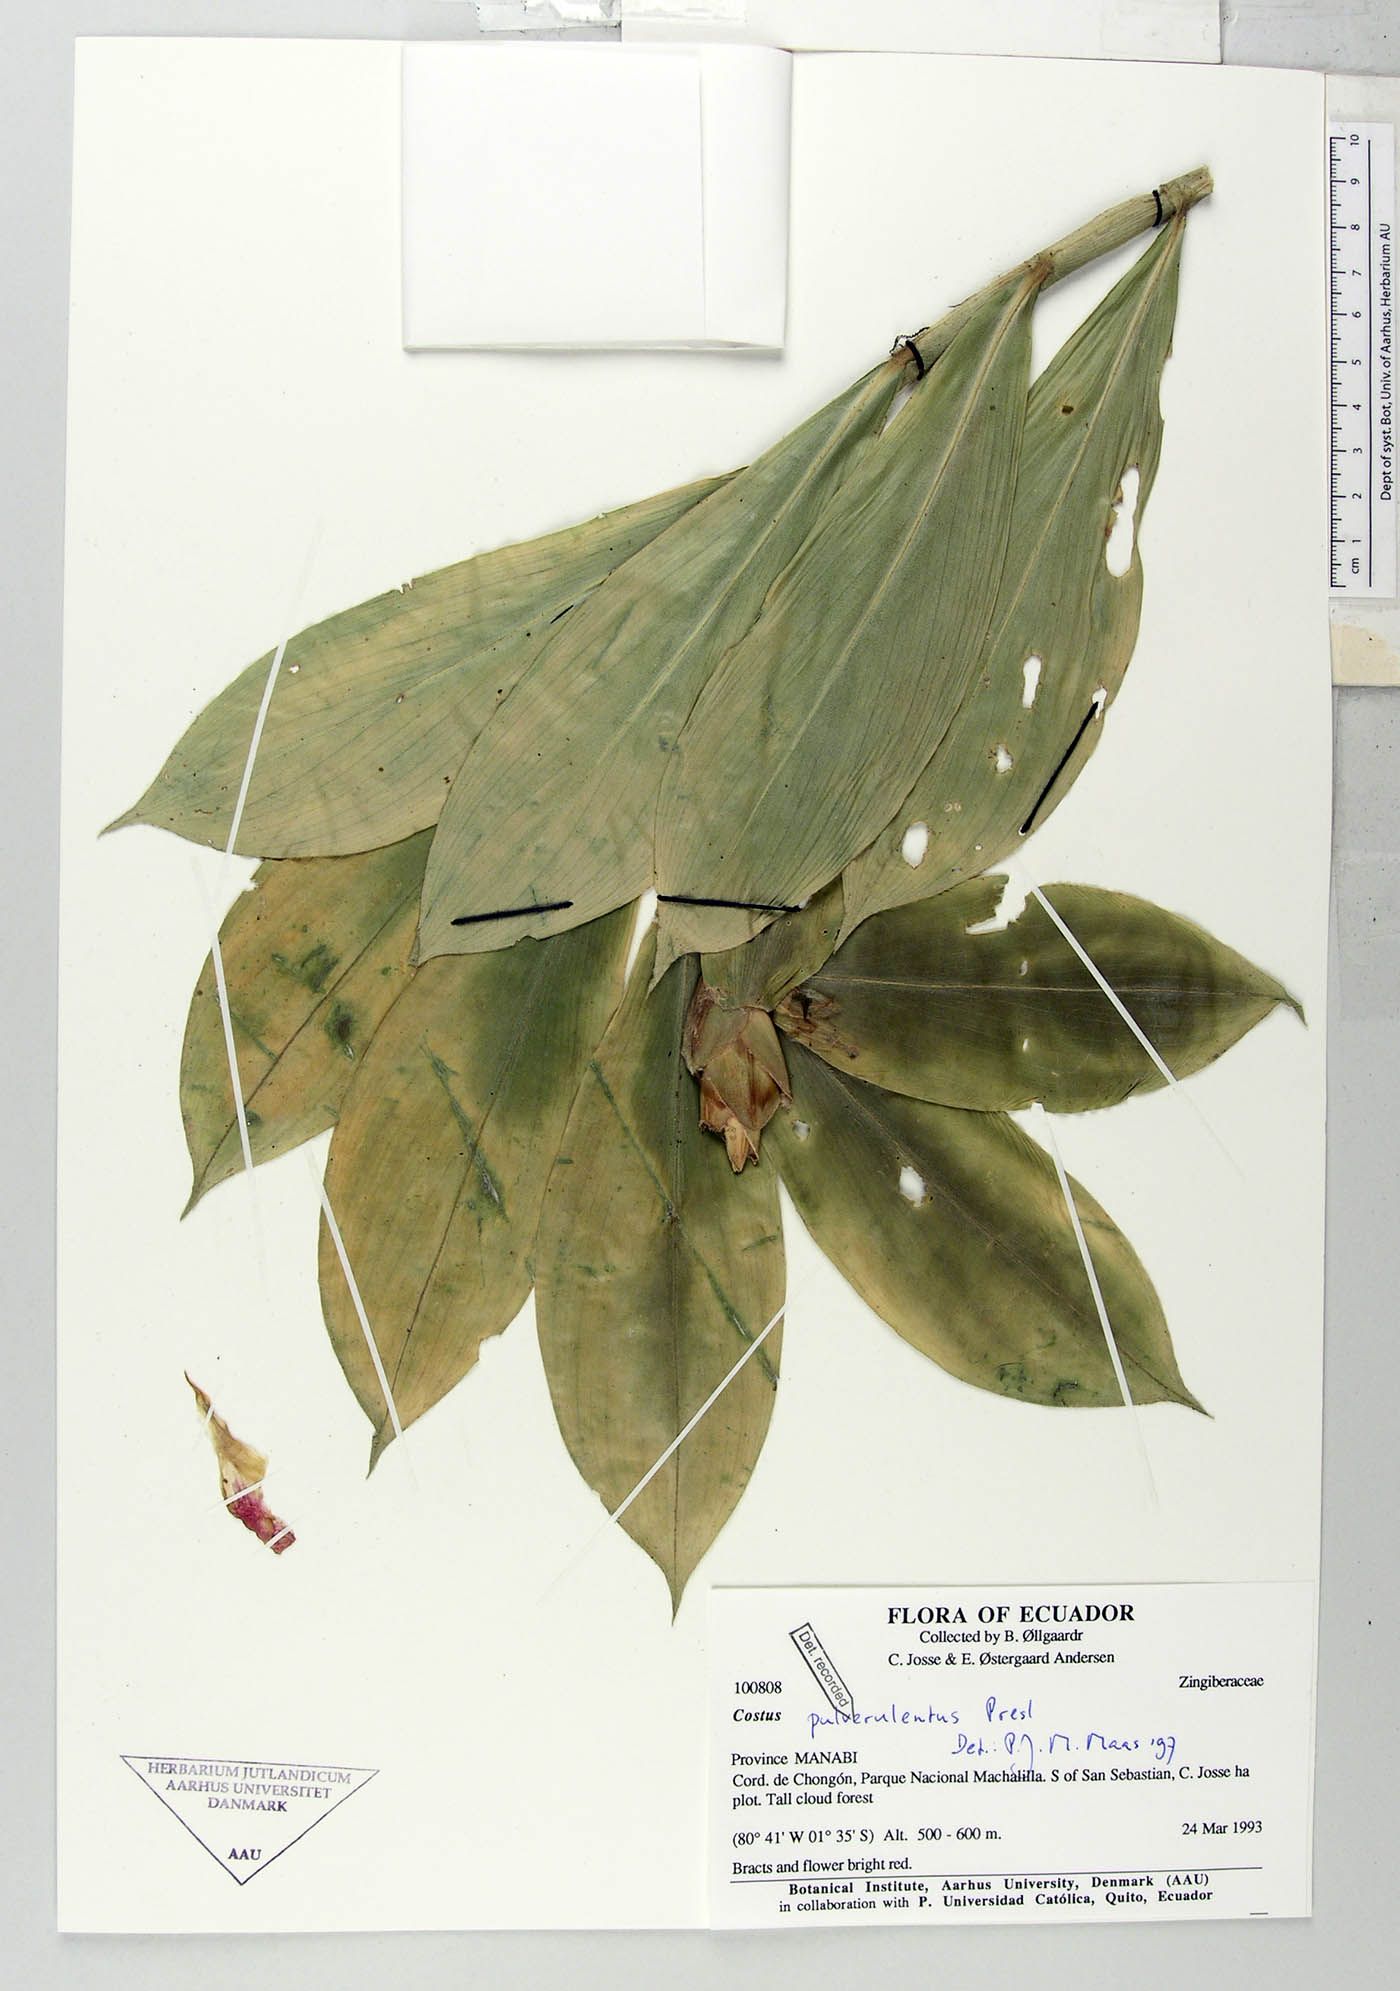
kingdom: Plantae
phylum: Tracheophyta
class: Liliopsida
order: Zingiberales
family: Costaceae
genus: Costus
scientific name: Costus pulverulentus
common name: Spiral ginger
